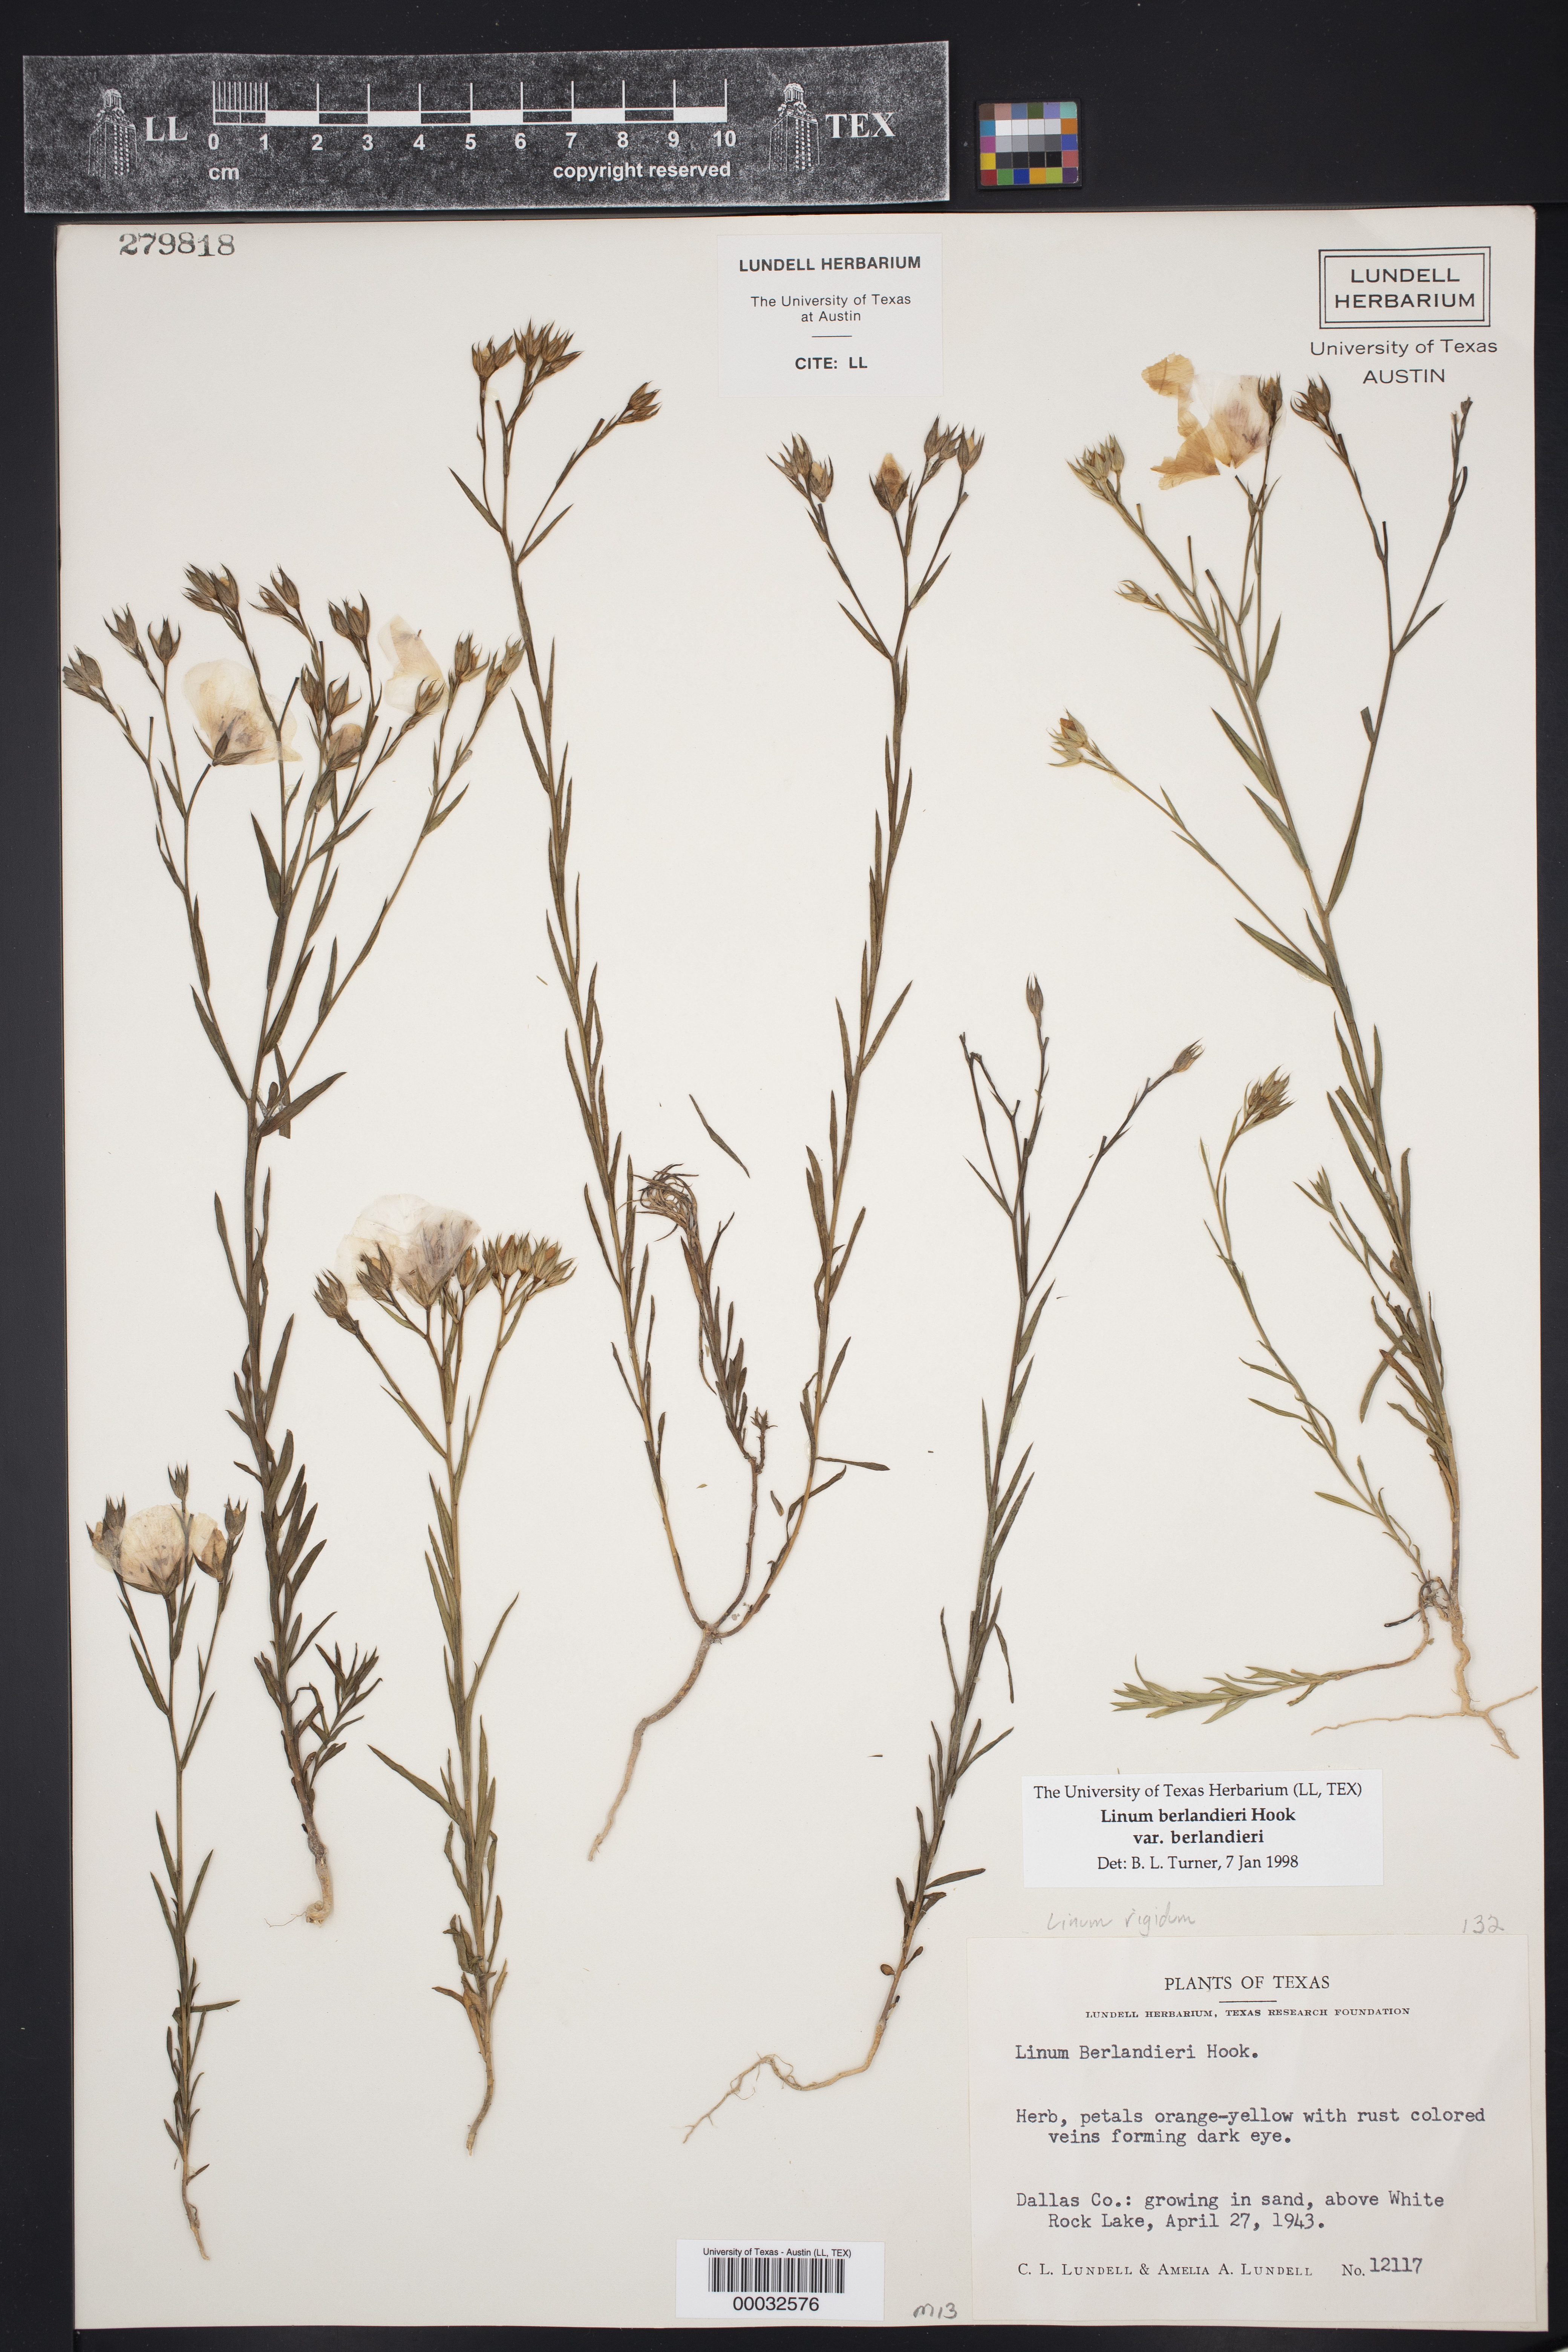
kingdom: Plantae
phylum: Tracheophyta
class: Magnoliopsida
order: Malpighiales
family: Linaceae
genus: Linum
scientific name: Linum berlandieri
